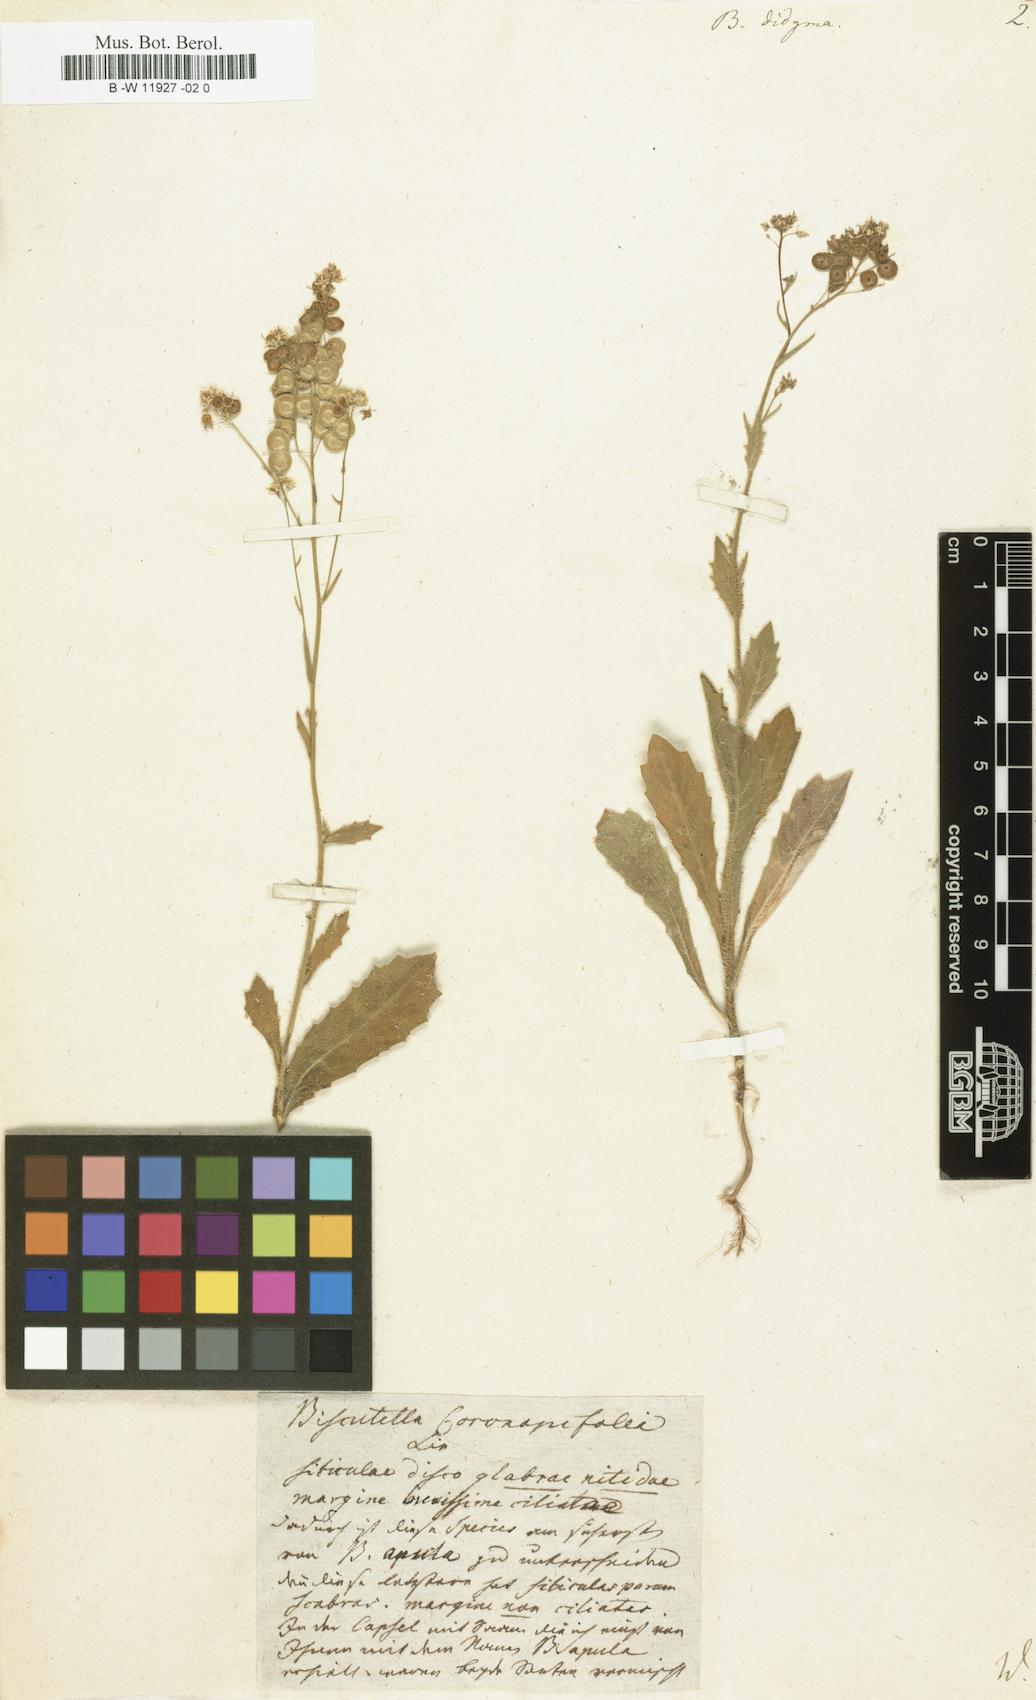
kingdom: Plantae
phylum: Tracheophyta
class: Magnoliopsida
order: Brassicales
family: Brassicaceae
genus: Biscutella
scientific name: Biscutella didyma
